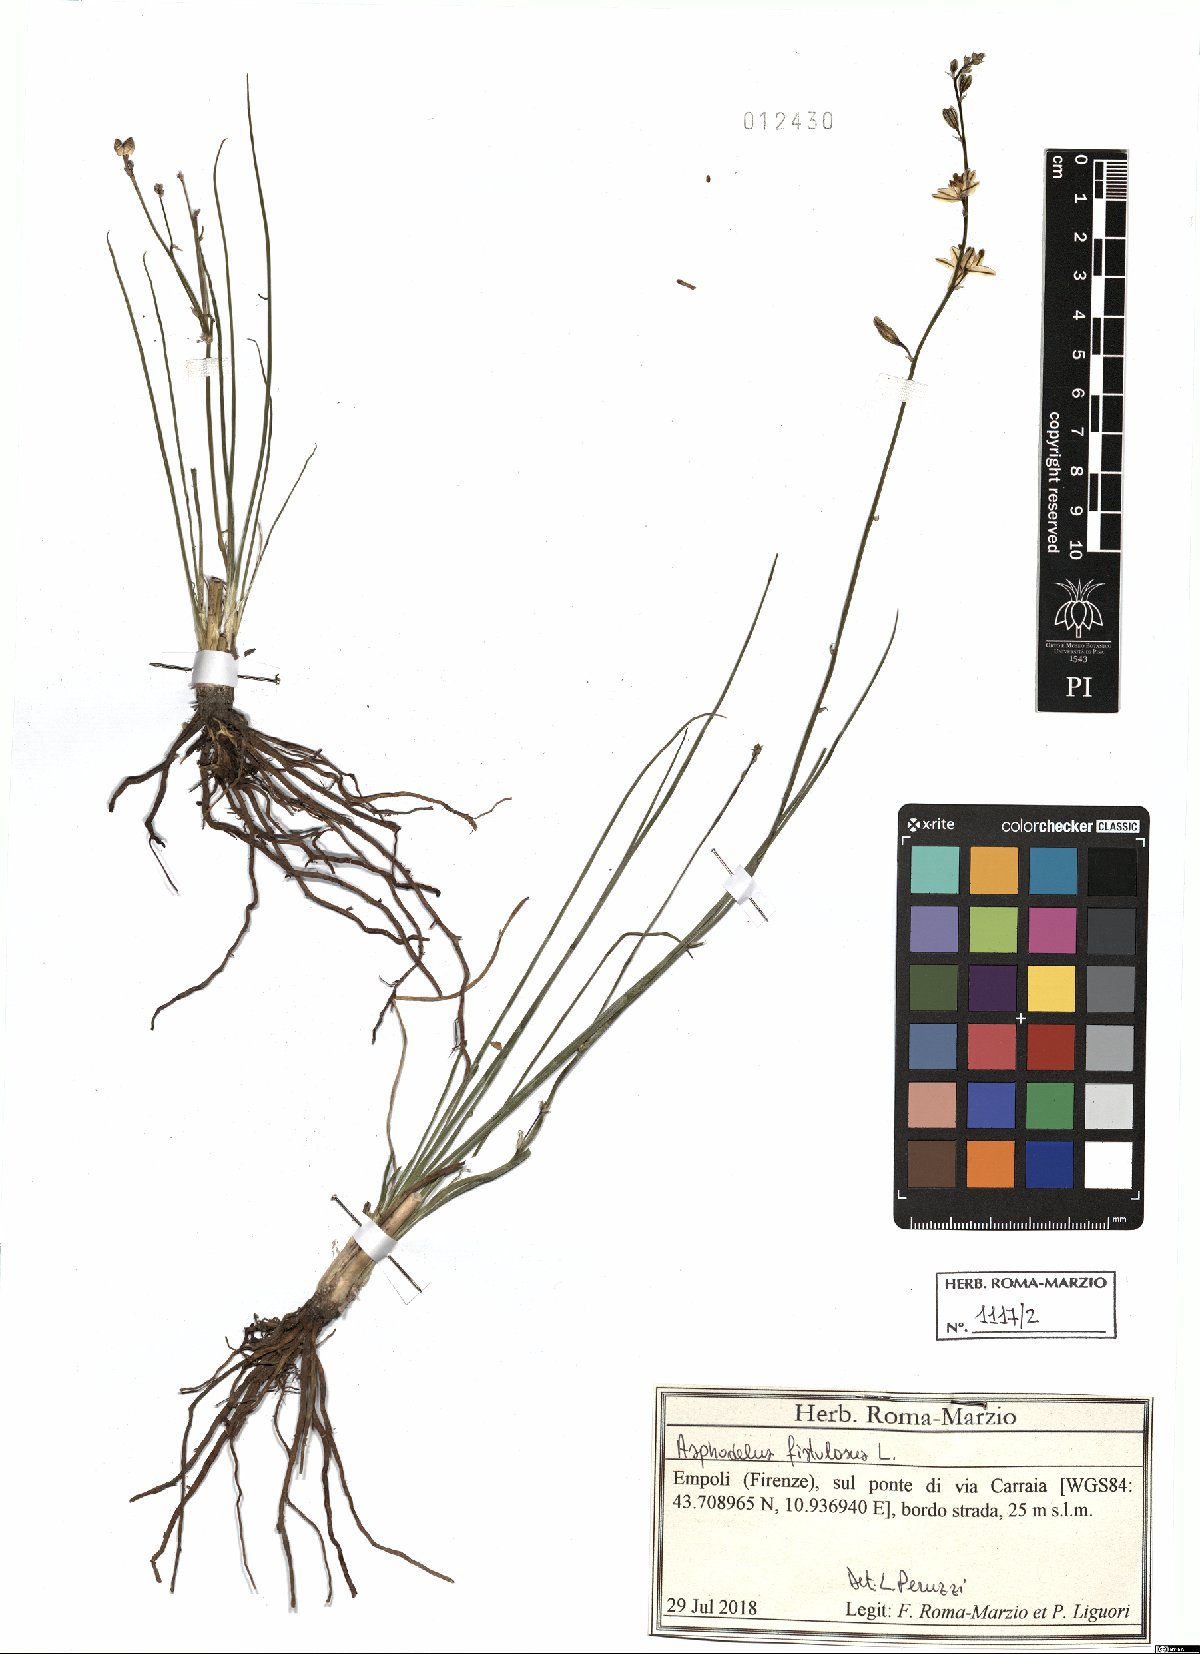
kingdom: Plantae
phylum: Tracheophyta
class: Liliopsida
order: Asparagales
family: Asphodelaceae
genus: Asphodelus
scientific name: Asphodelus fistulosus
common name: Onionweed
